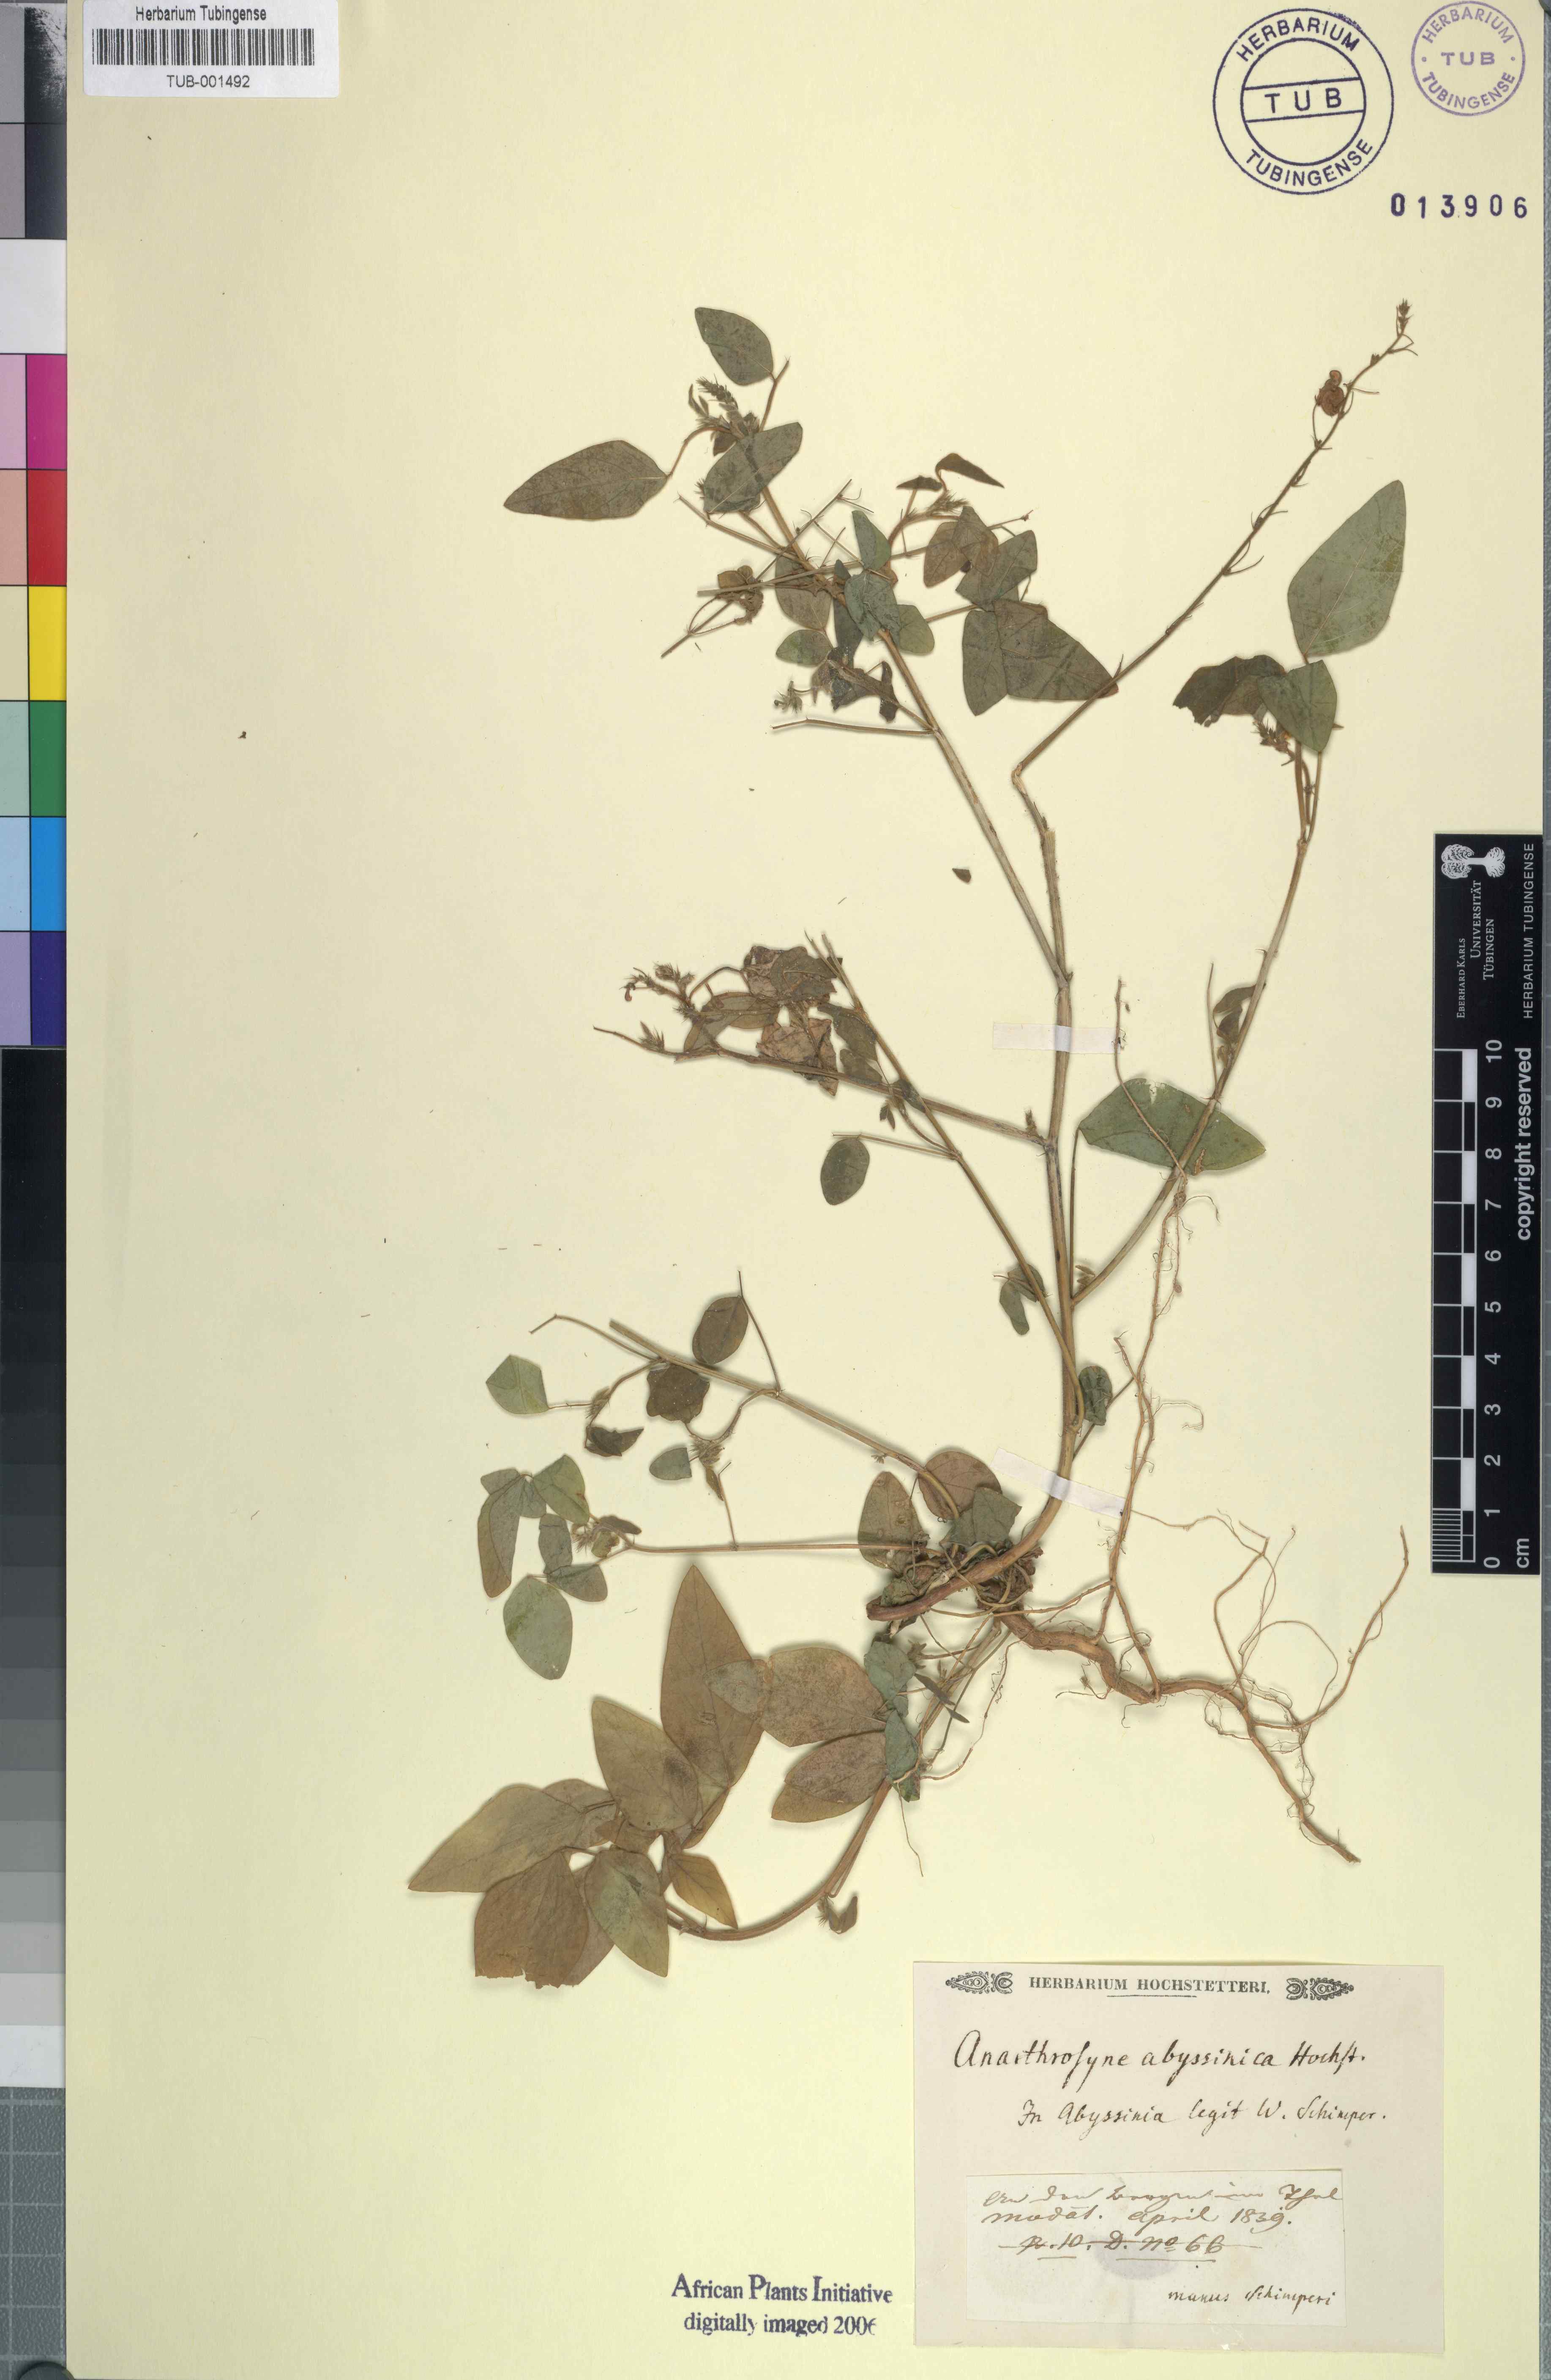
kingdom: Plantae
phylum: Tracheophyta
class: Magnoliopsida
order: Fabales
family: Fabaceae
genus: Desmodium
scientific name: Desmodium procumbens
